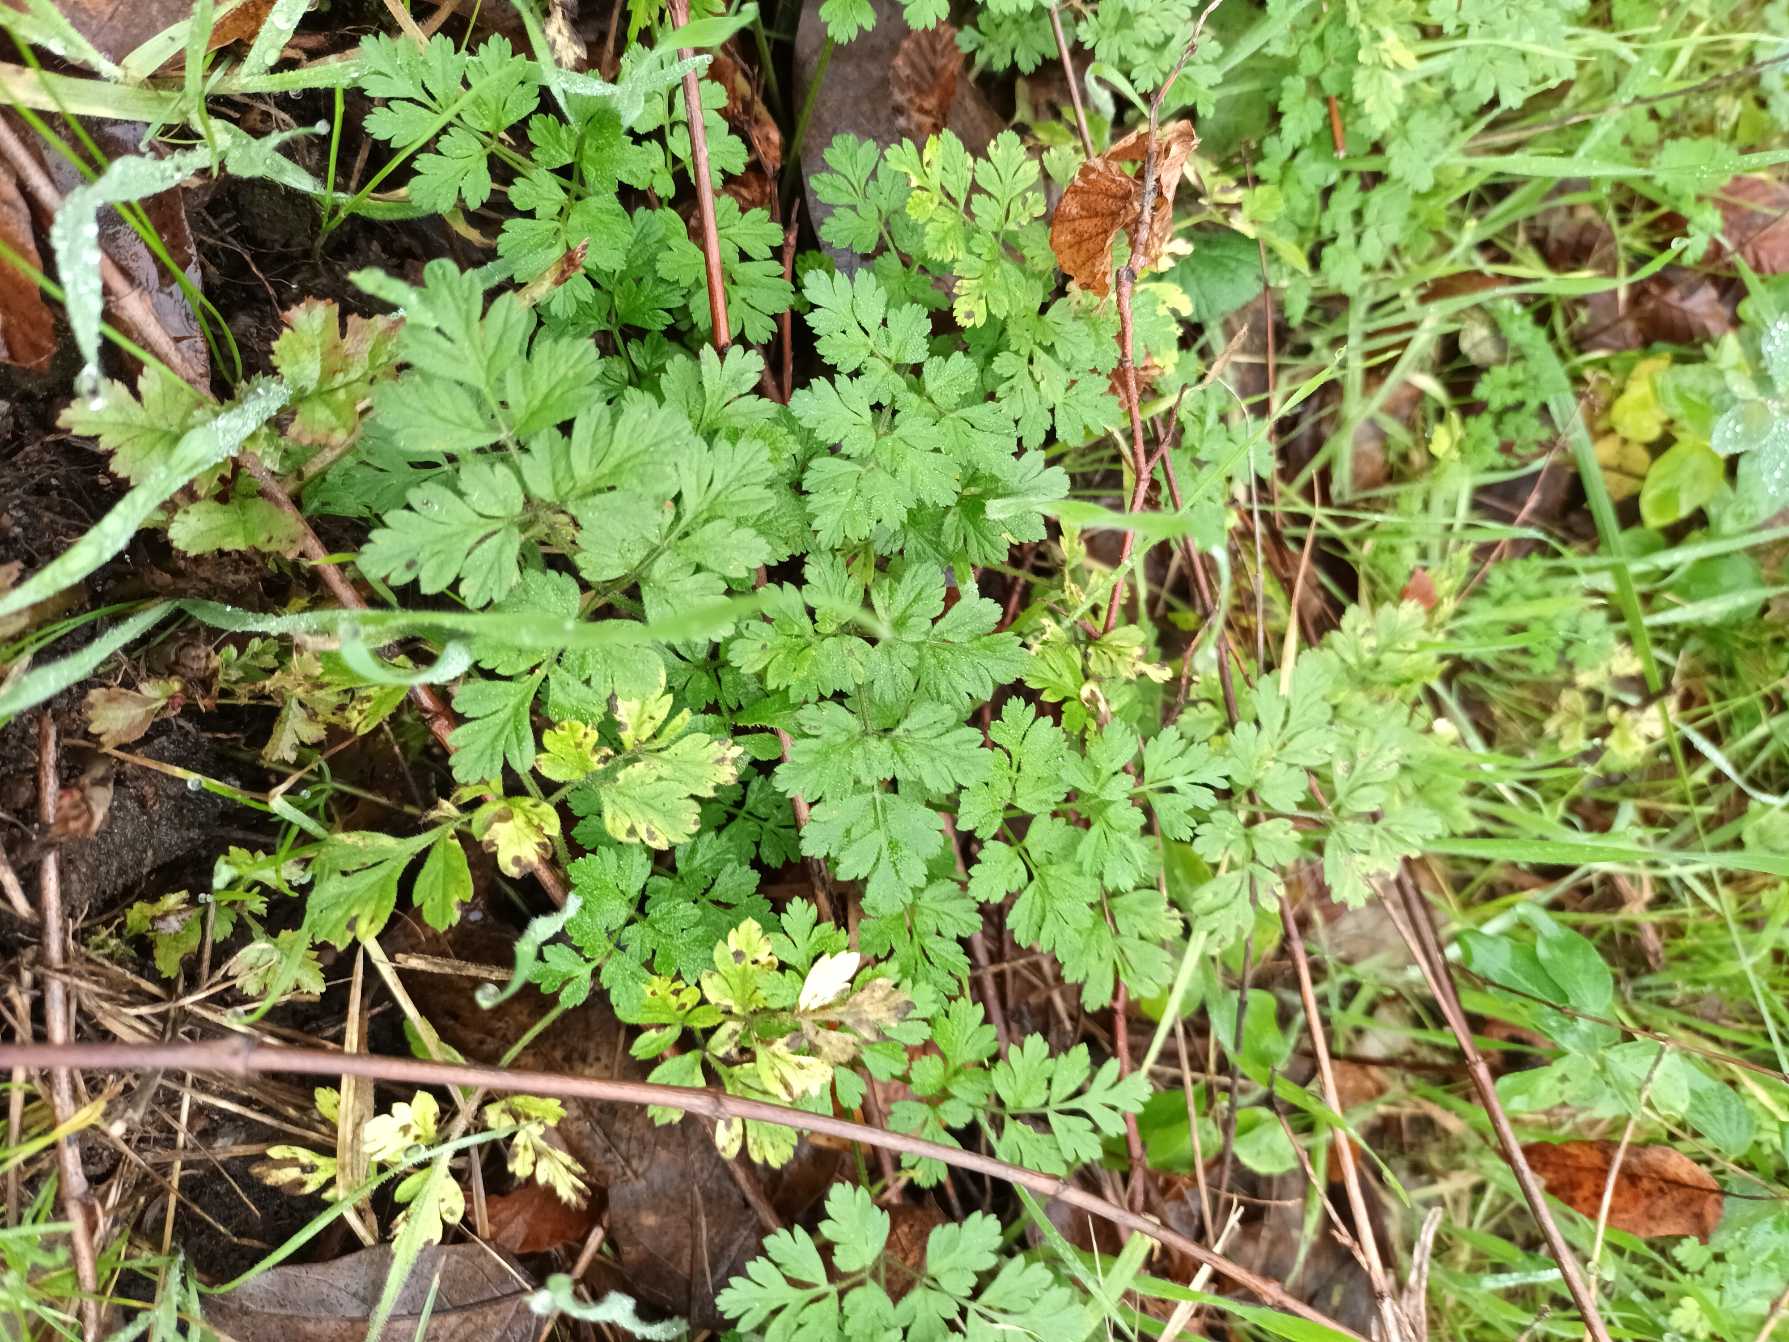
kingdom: Plantae
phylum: Tracheophyta
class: Magnoliopsida
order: Apiales
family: Apiaceae
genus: Chaerophyllum
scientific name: Chaerophyllum temulum
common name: Almindelig hulsvøb
